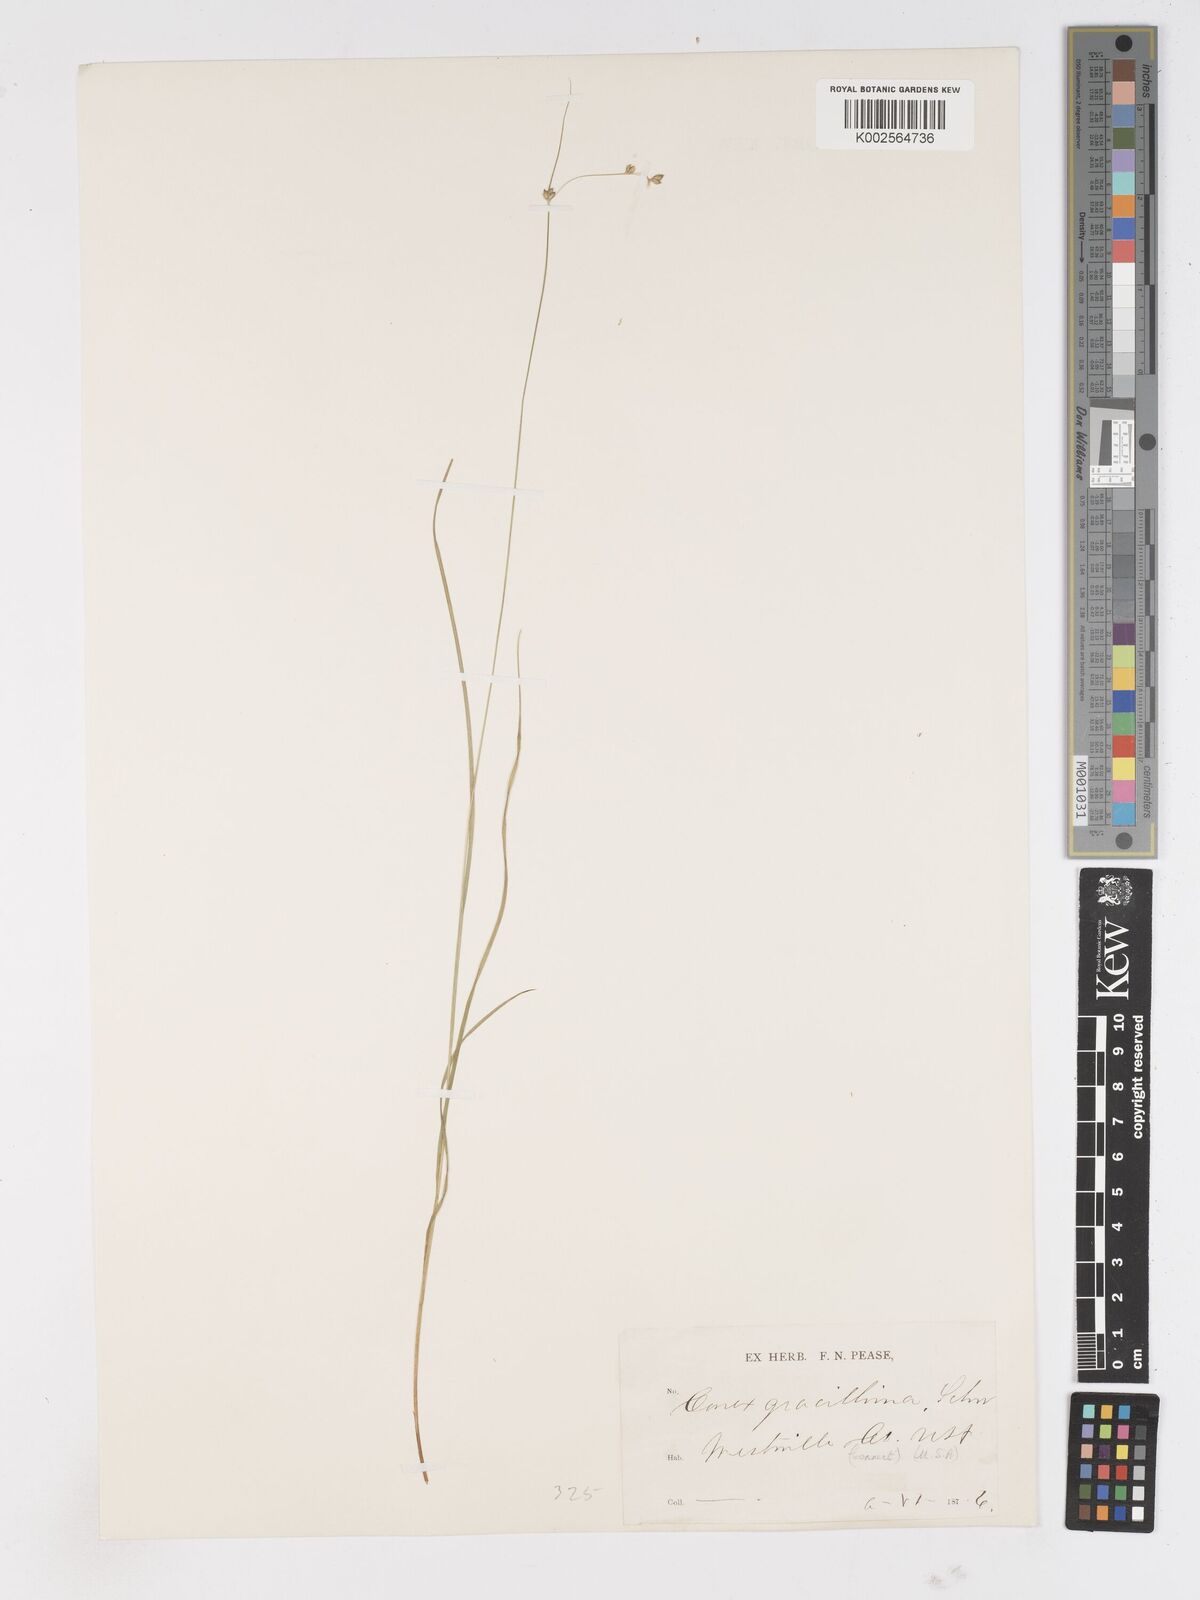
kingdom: Plantae
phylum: Tracheophyta
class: Liliopsida
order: Poales
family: Cyperaceae
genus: Carex
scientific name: Carex
